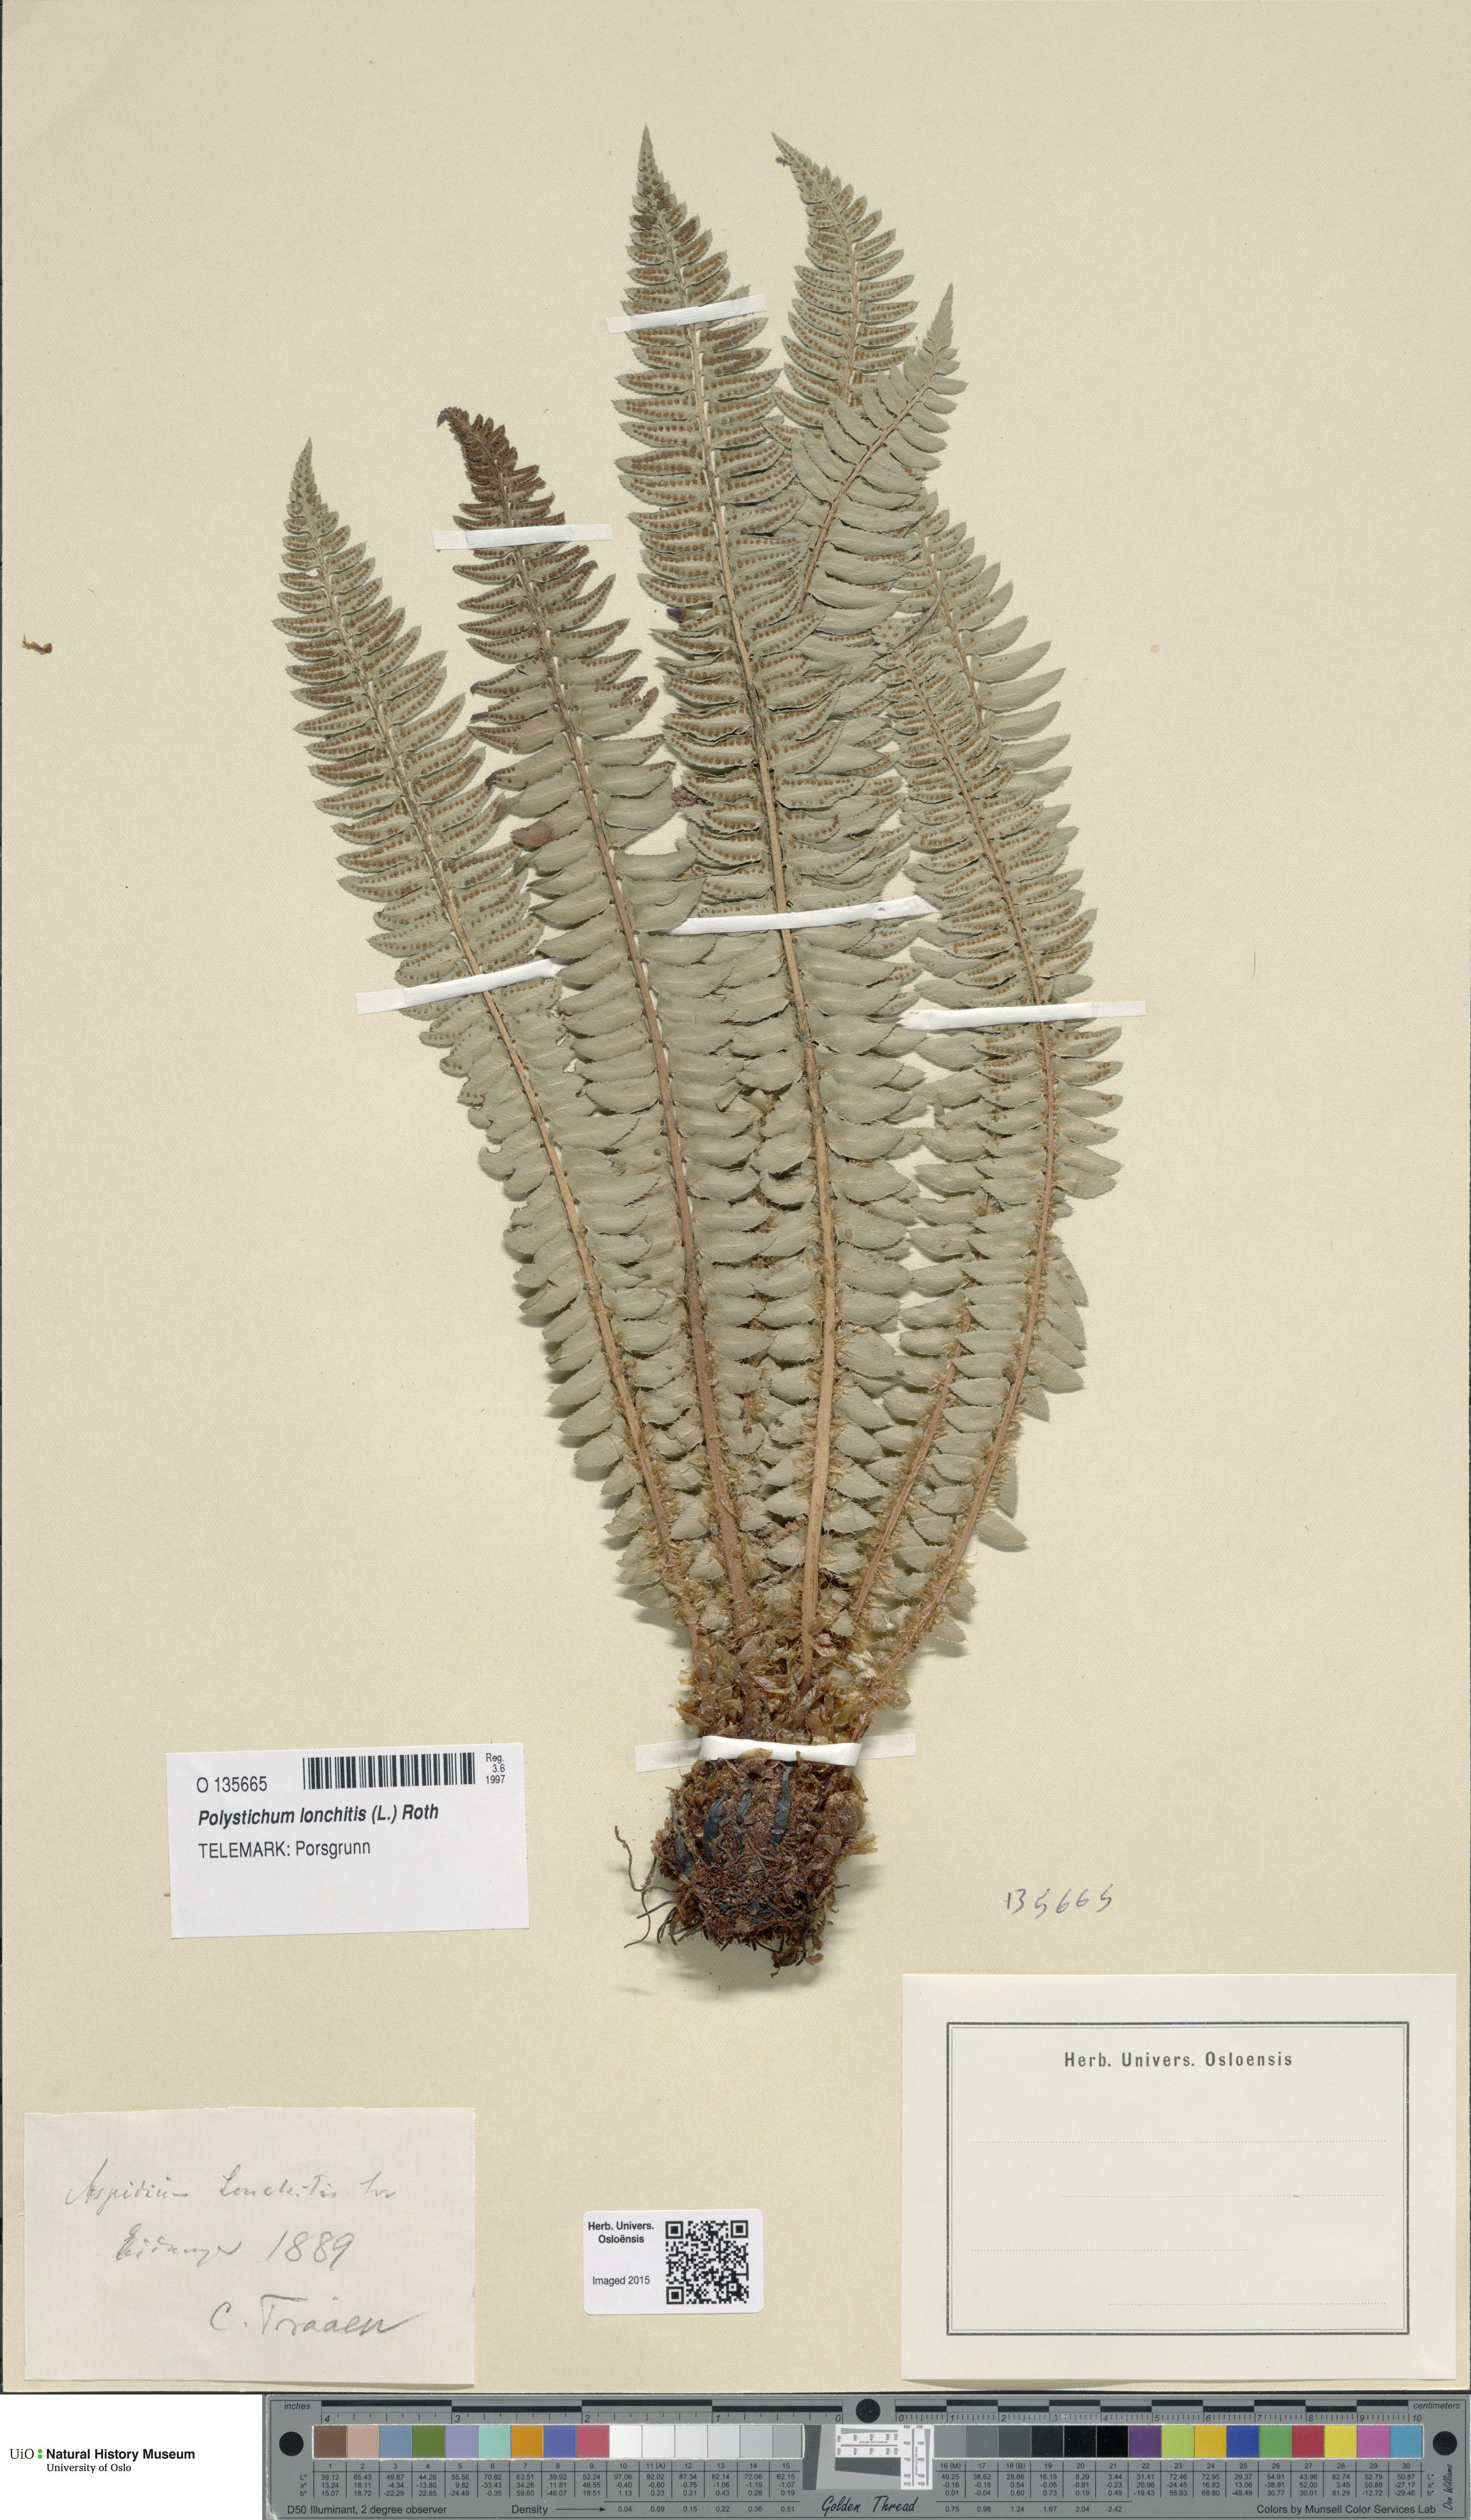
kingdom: Plantae
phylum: Tracheophyta
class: Polypodiopsida
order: Polypodiales
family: Dryopteridaceae
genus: Polystichum
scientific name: Polystichum lonchitis
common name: Holly fern
